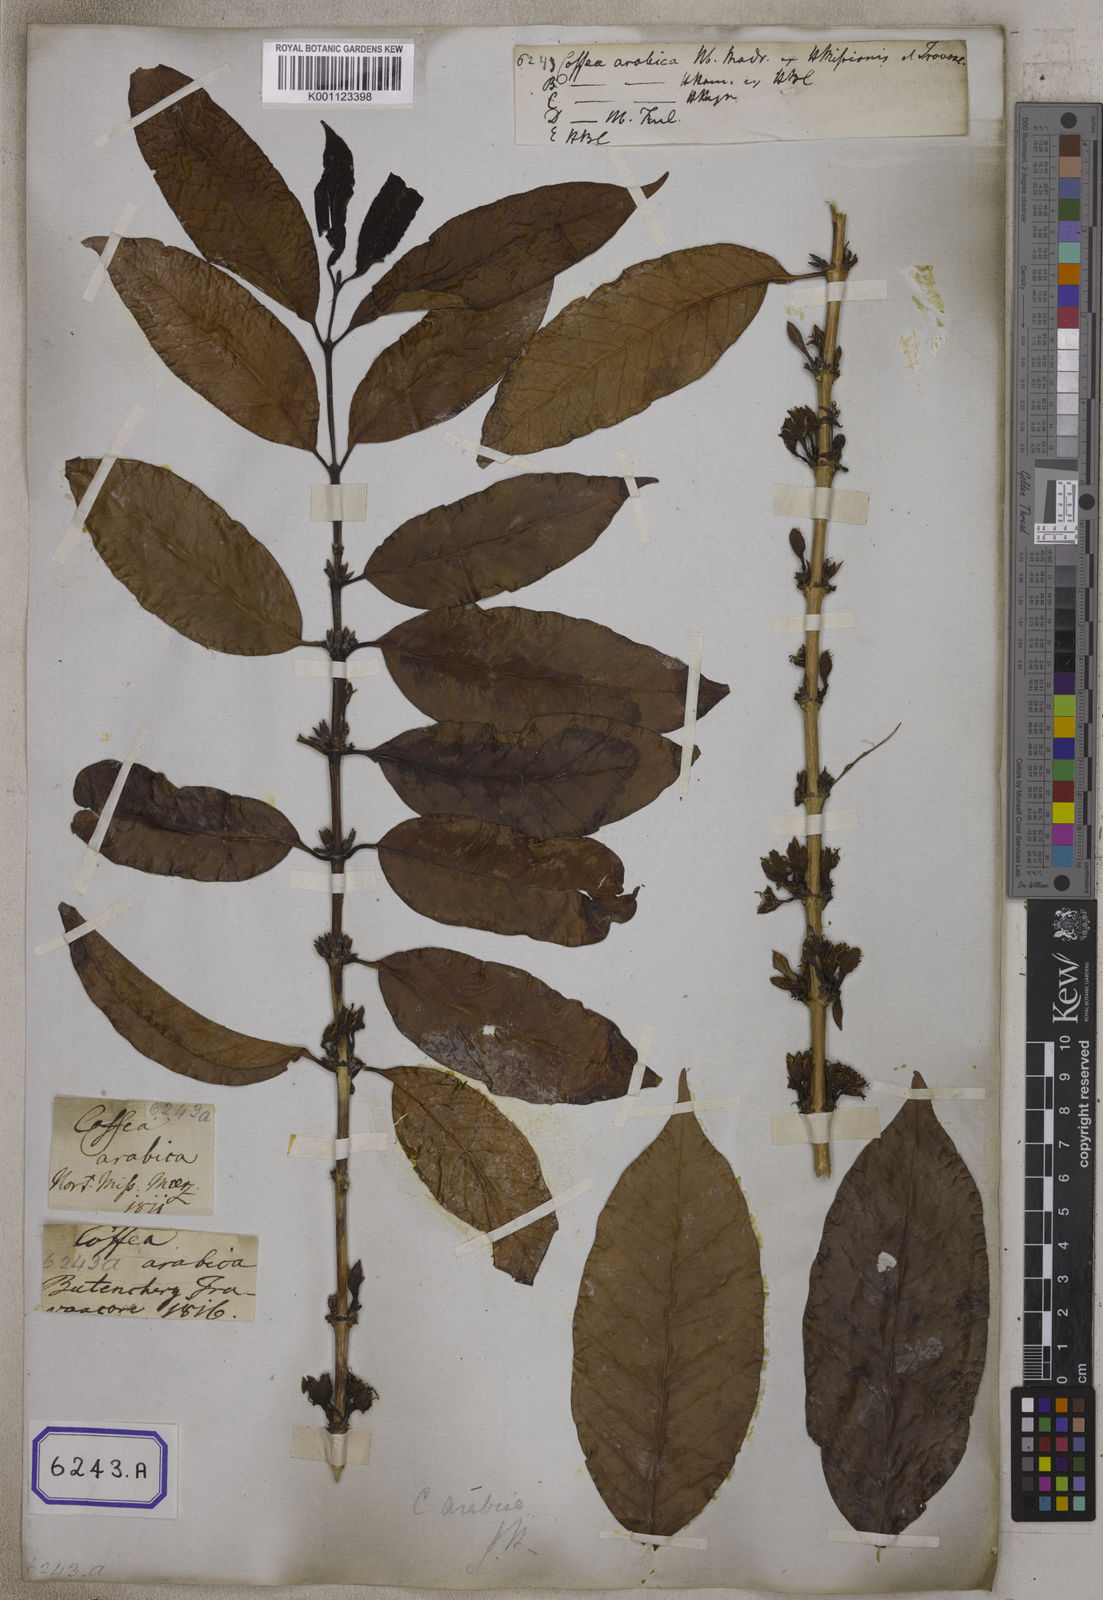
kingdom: Plantae
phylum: Tracheophyta
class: Magnoliopsida
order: Gentianales
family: Rubiaceae
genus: Coffea
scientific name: Coffea arabica
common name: Coffee
